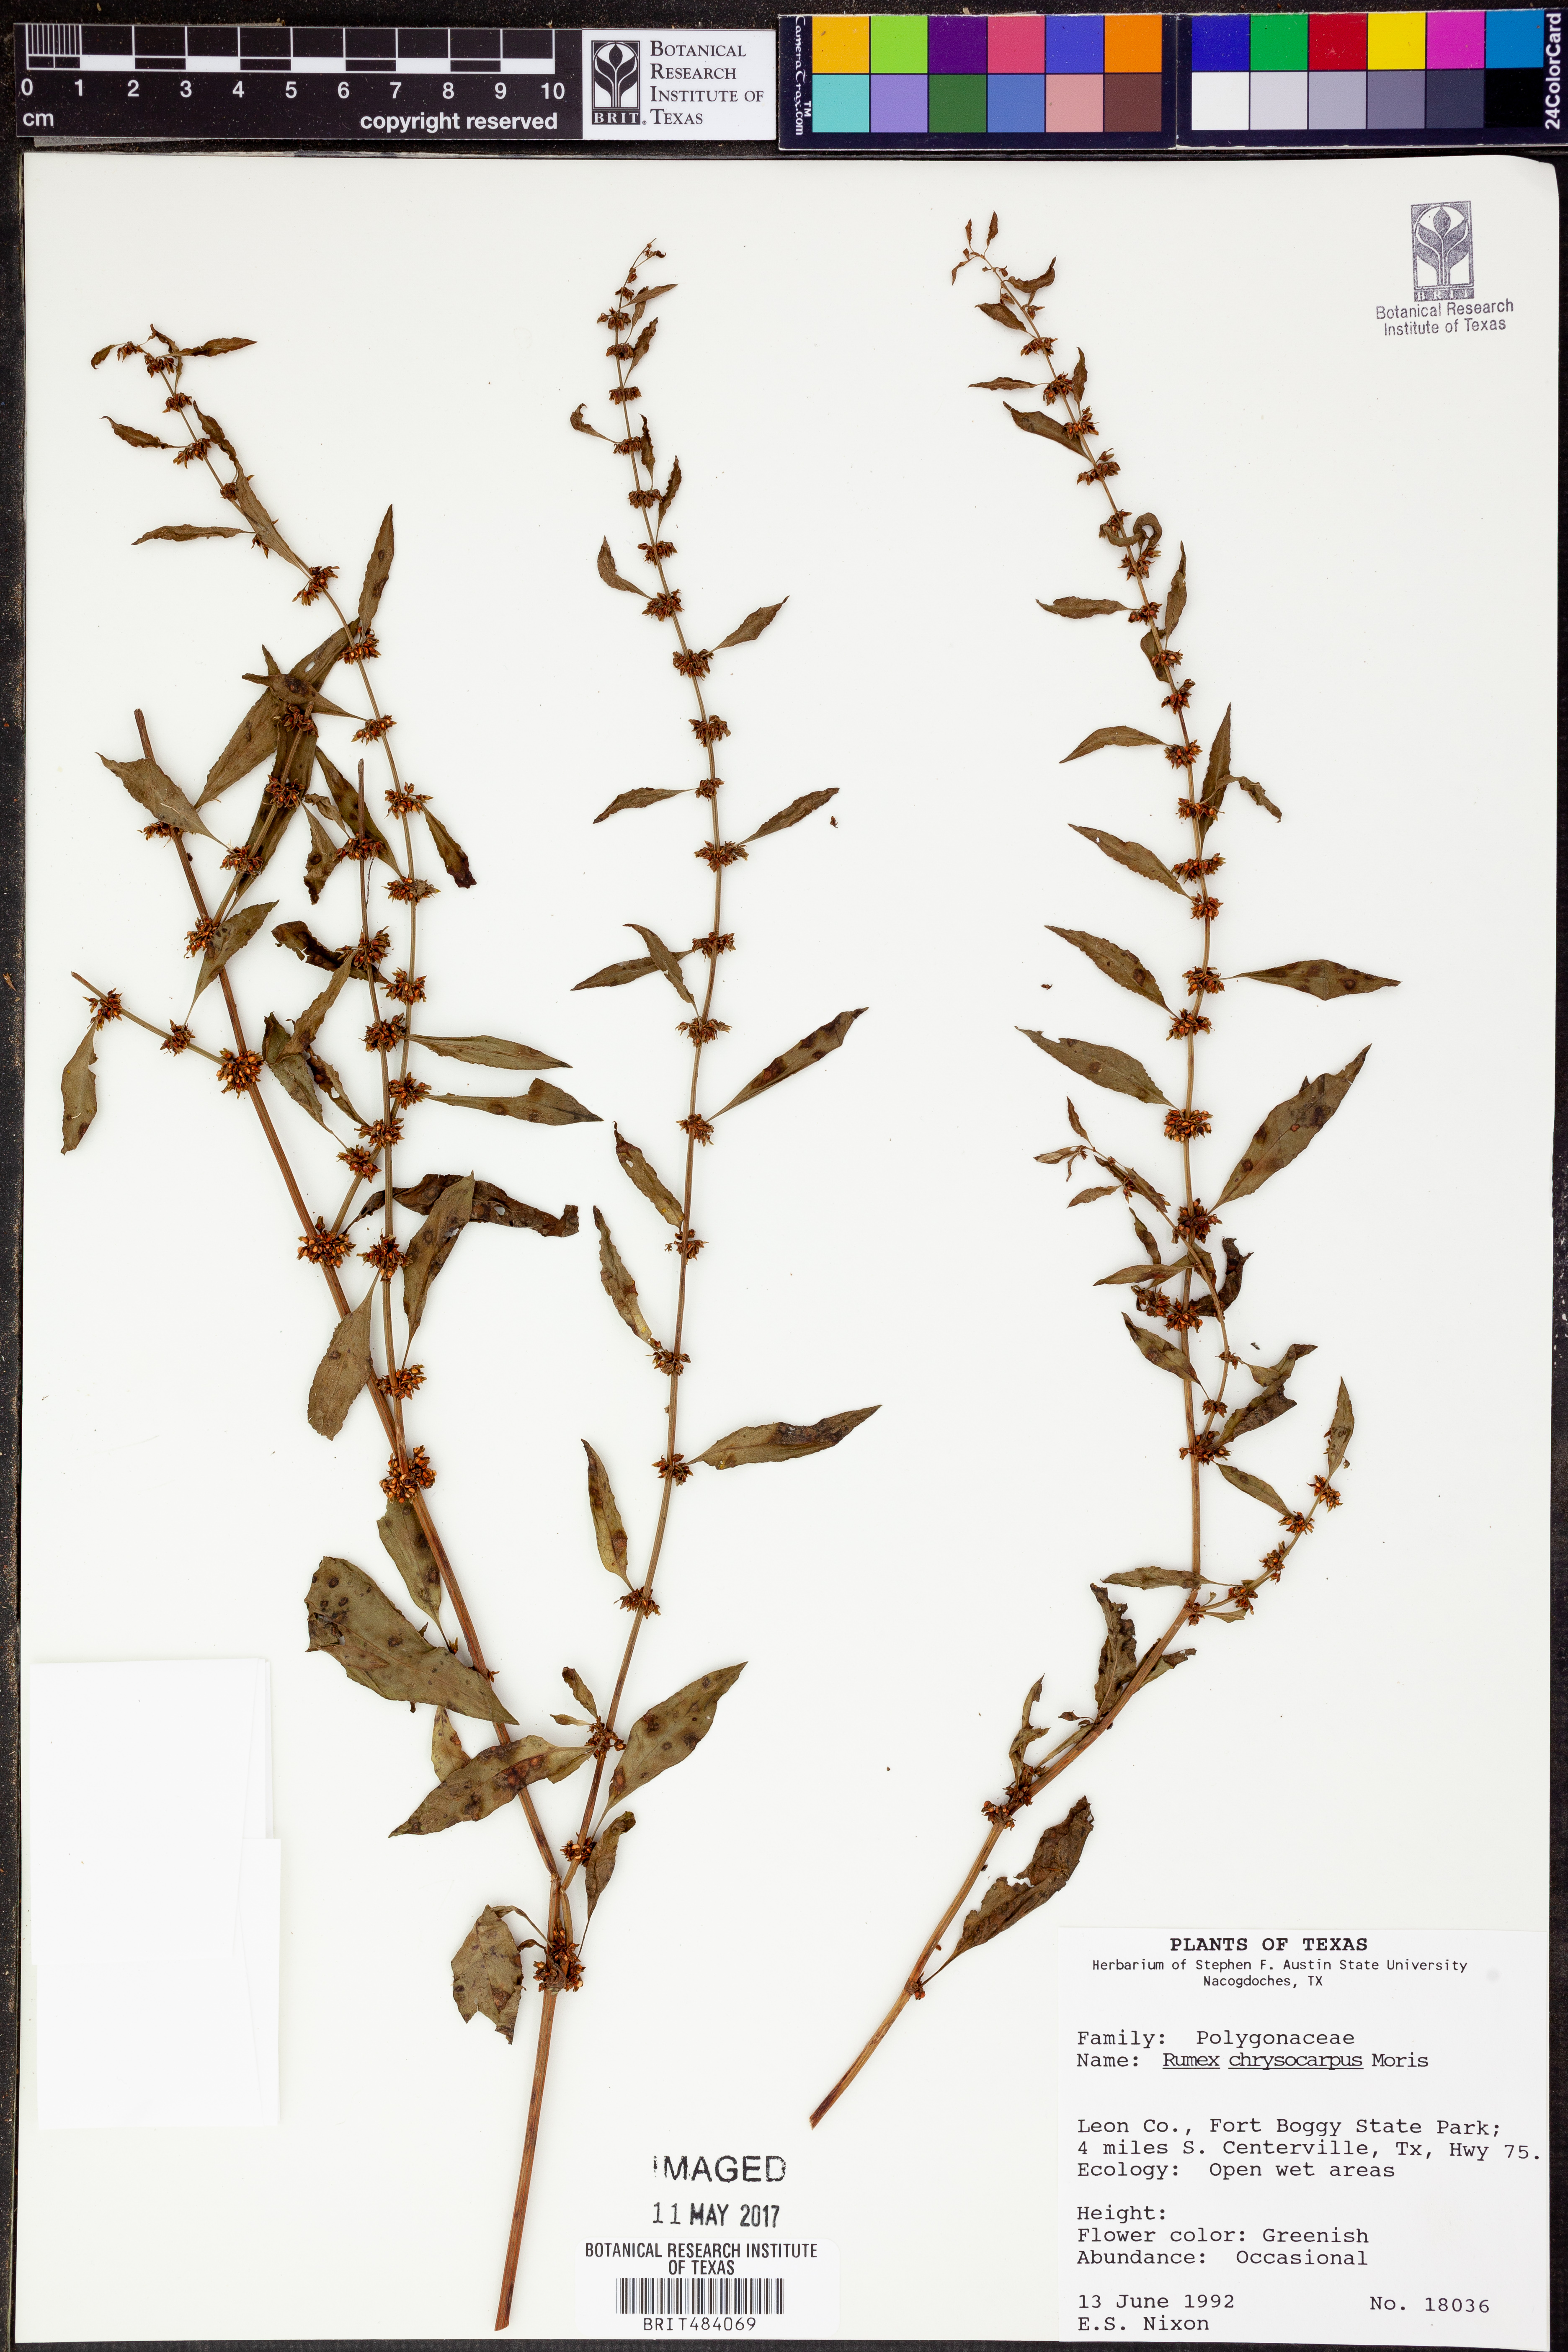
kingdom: Plantae
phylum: Tracheophyta
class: Magnoliopsida
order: Caryophyllales
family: Polygonaceae
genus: Rumex
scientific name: Rumex chrysocarpus
